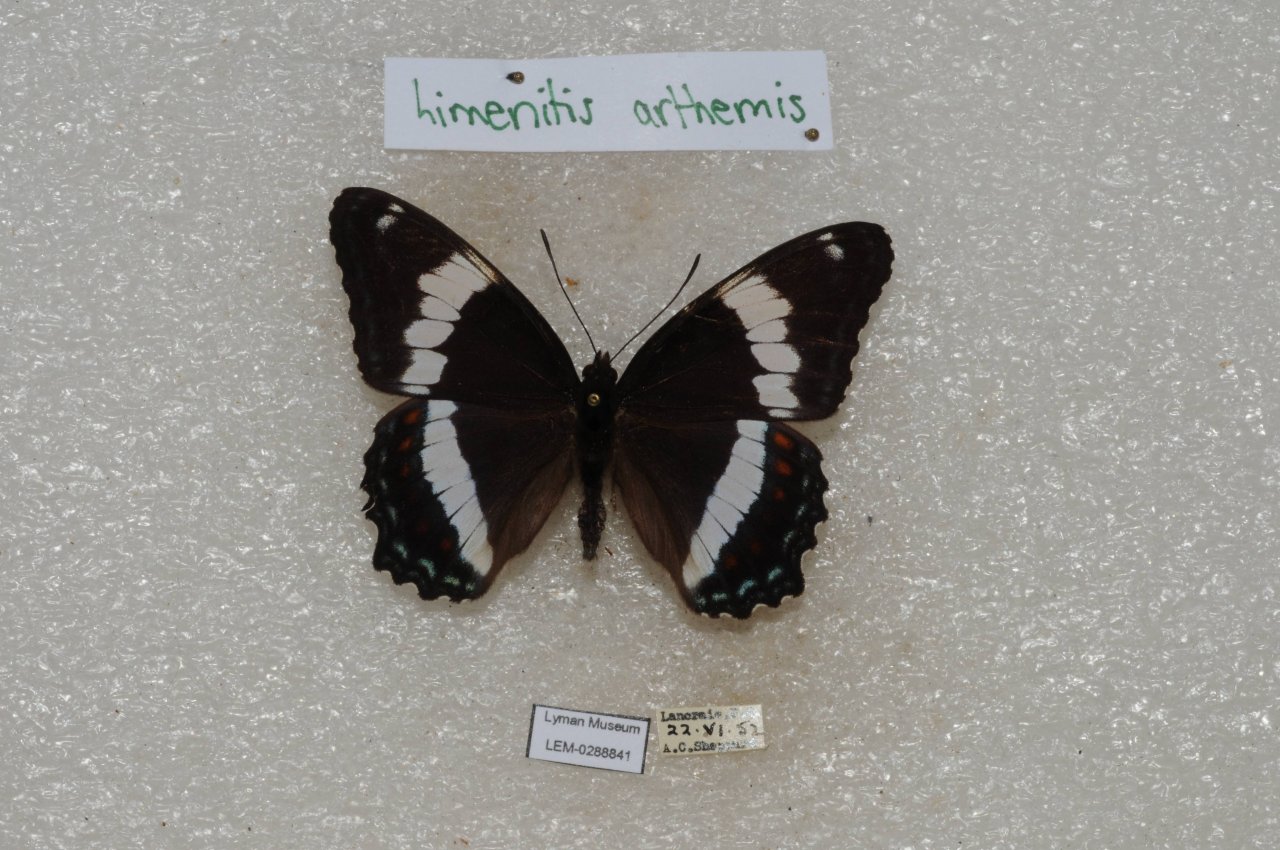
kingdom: Animalia
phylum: Arthropoda
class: Insecta
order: Lepidoptera
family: Nymphalidae
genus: Limenitis
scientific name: Limenitis arthemis
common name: Red-spotted Admiral
